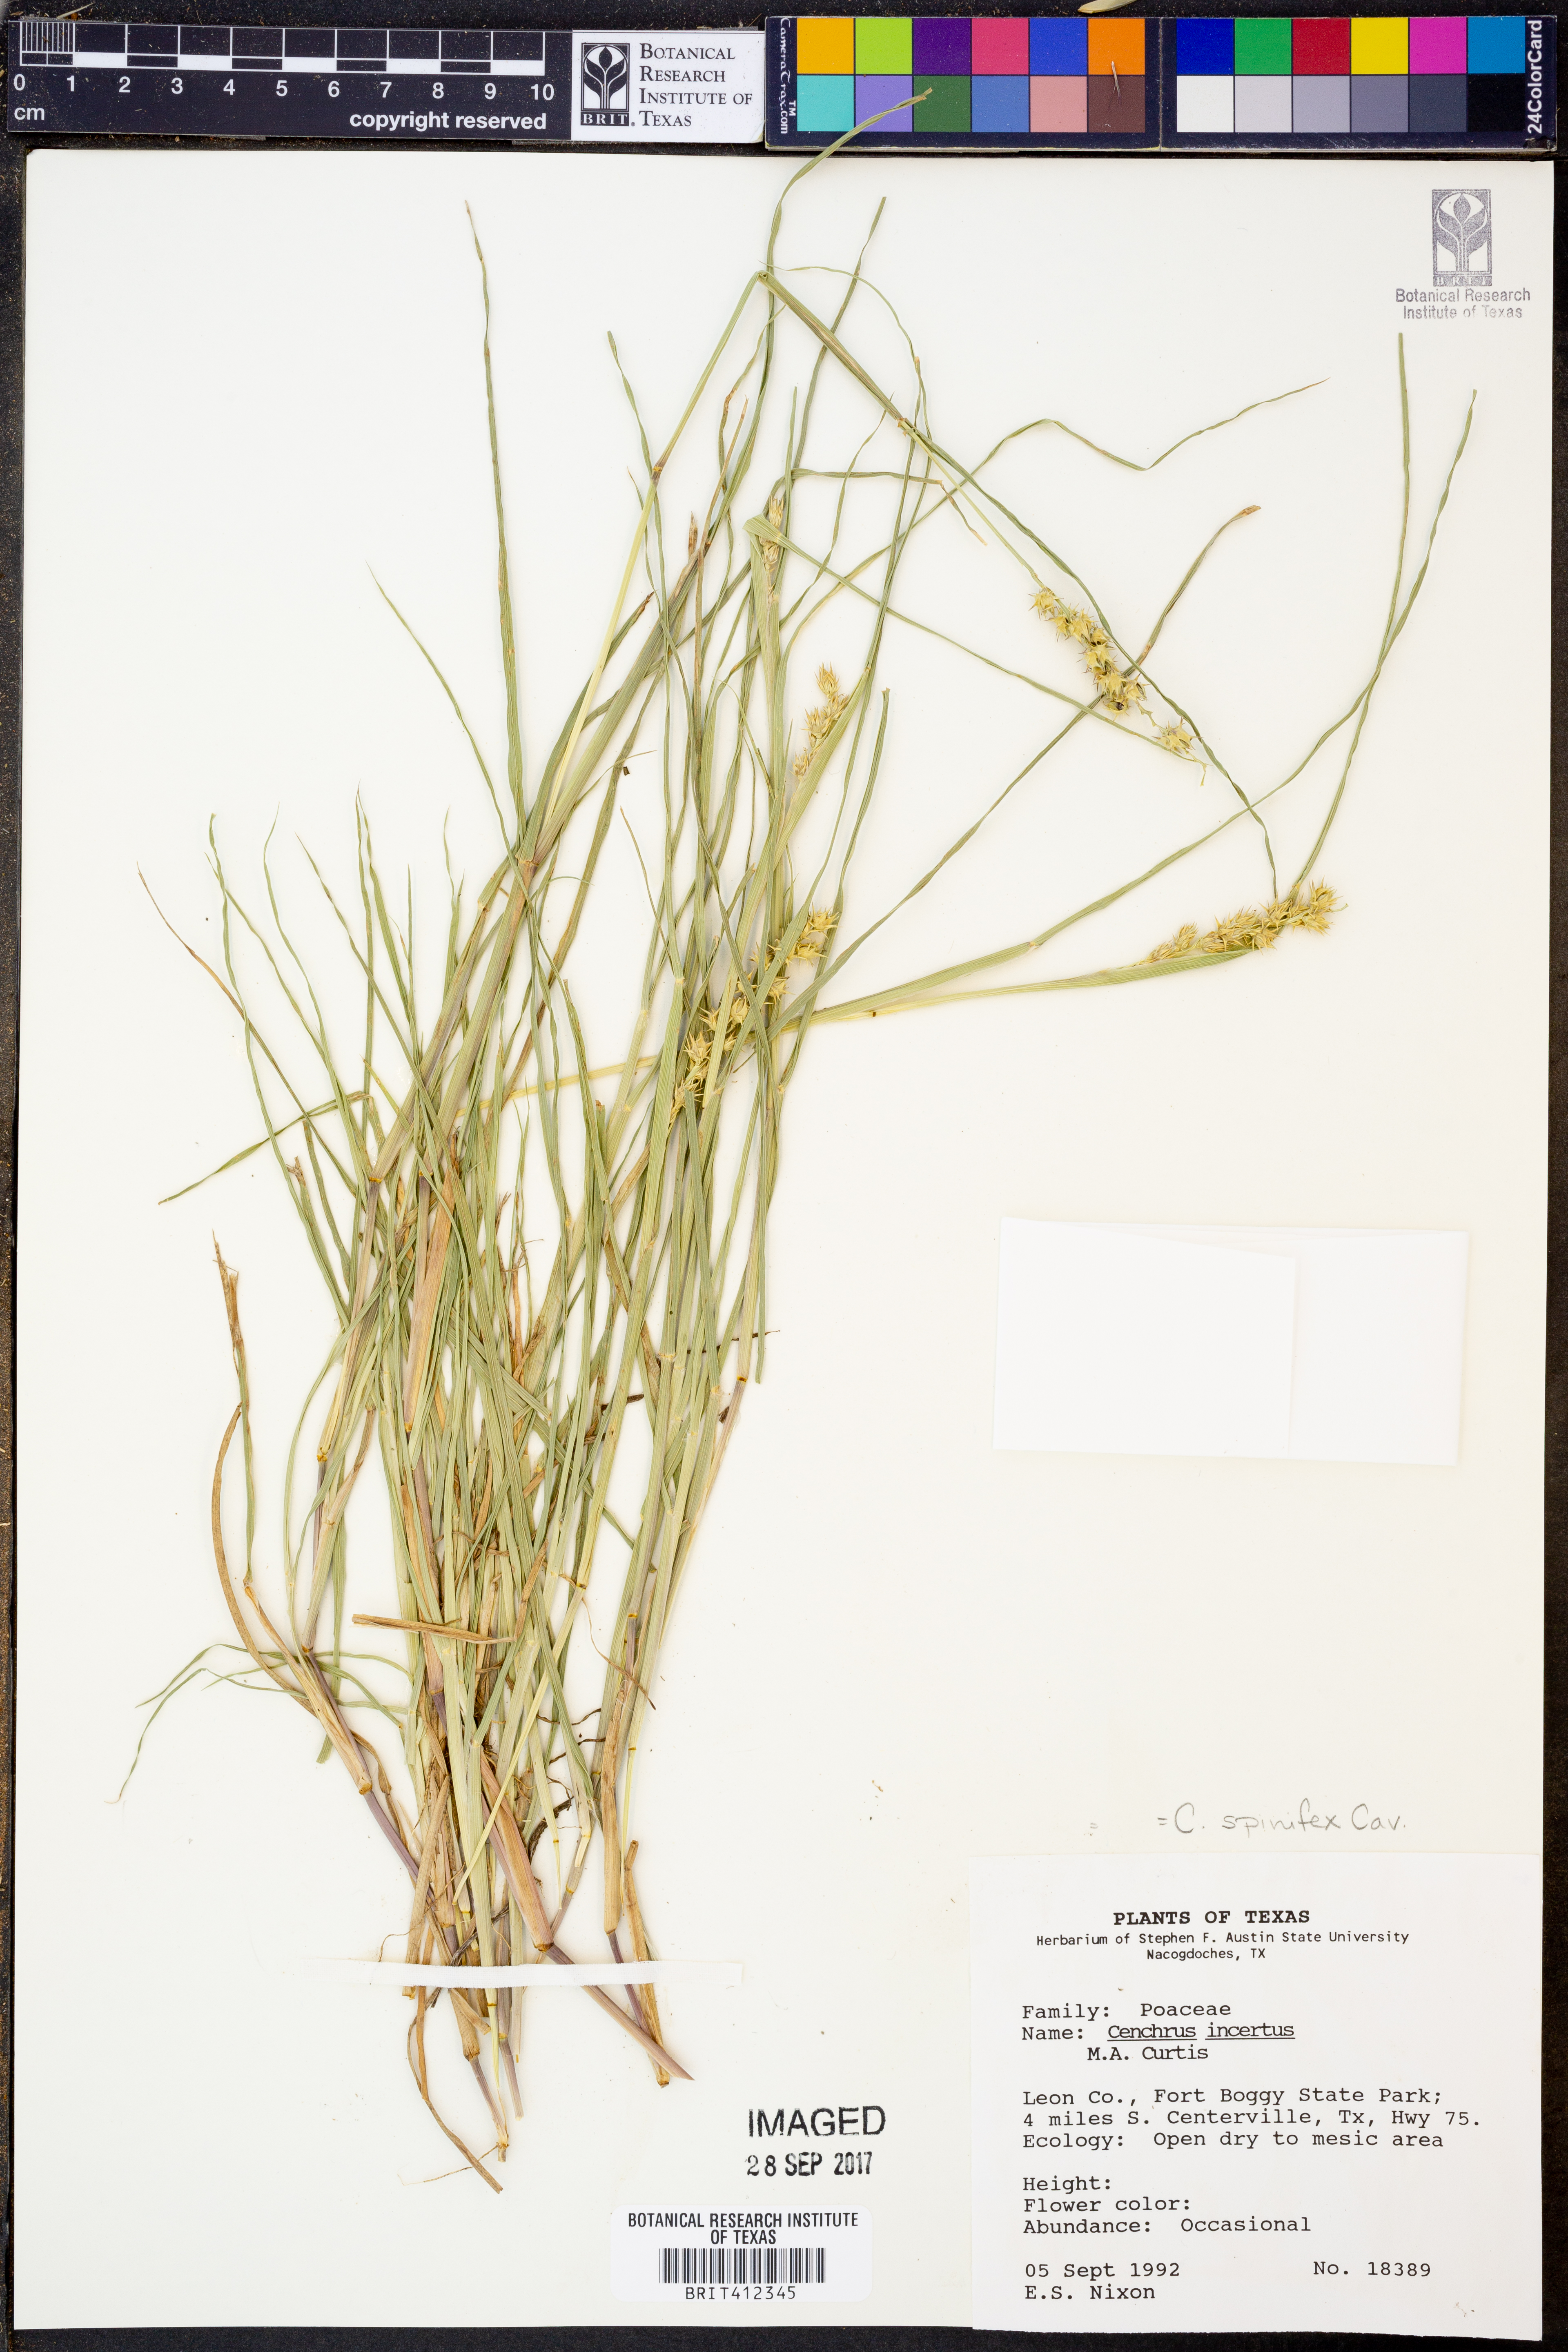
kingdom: Plantae
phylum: Tracheophyta
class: Liliopsida
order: Poales
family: Poaceae
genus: Cenchrus
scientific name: Cenchrus spinifex
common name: Coast sandbur
